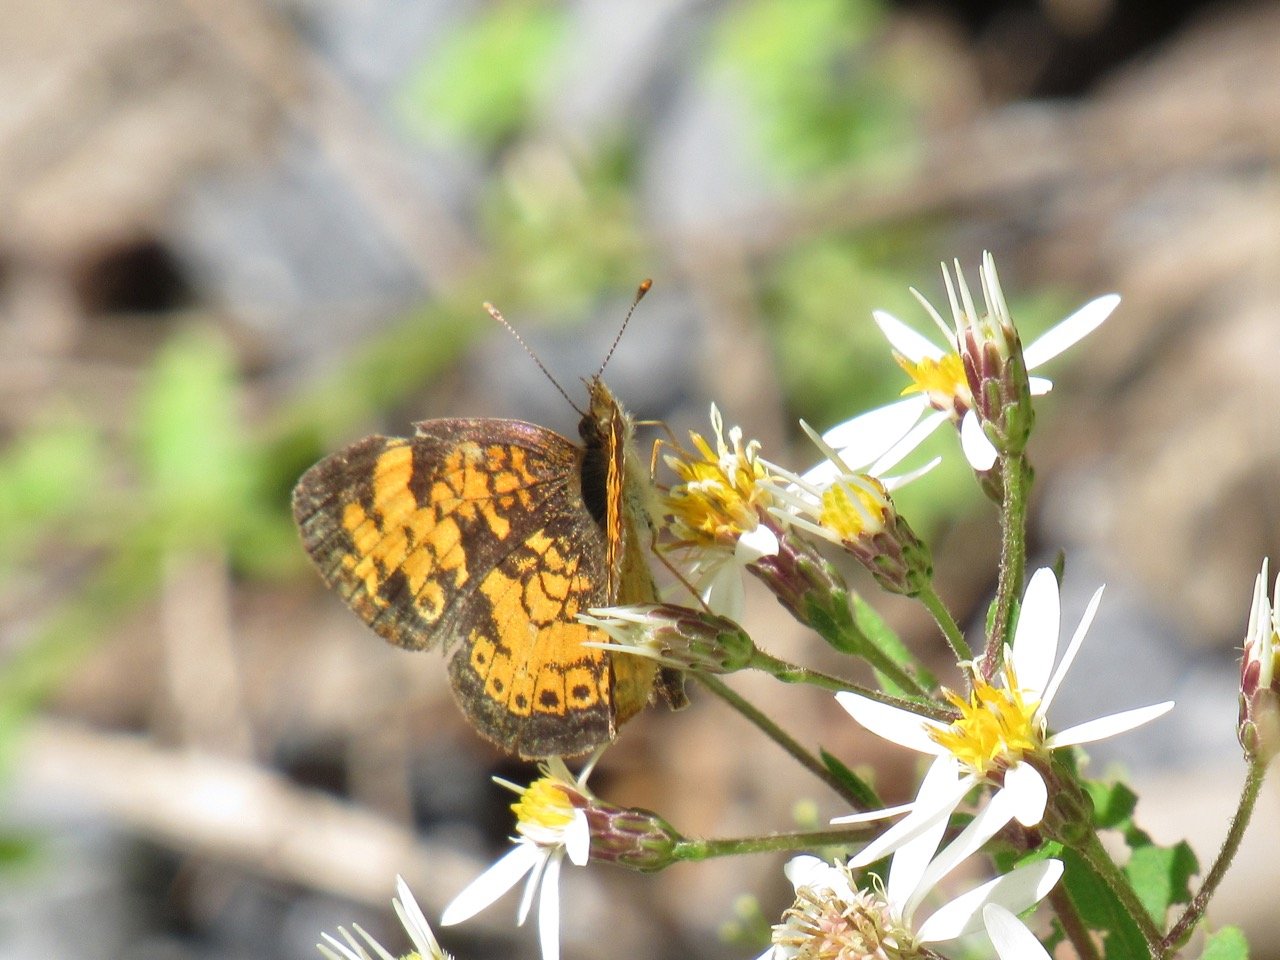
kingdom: Animalia
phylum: Arthropoda
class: Insecta
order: Lepidoptera
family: Nymphalidae
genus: Phyciodes
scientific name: Phyciodes tharos
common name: Pearl Crescent
